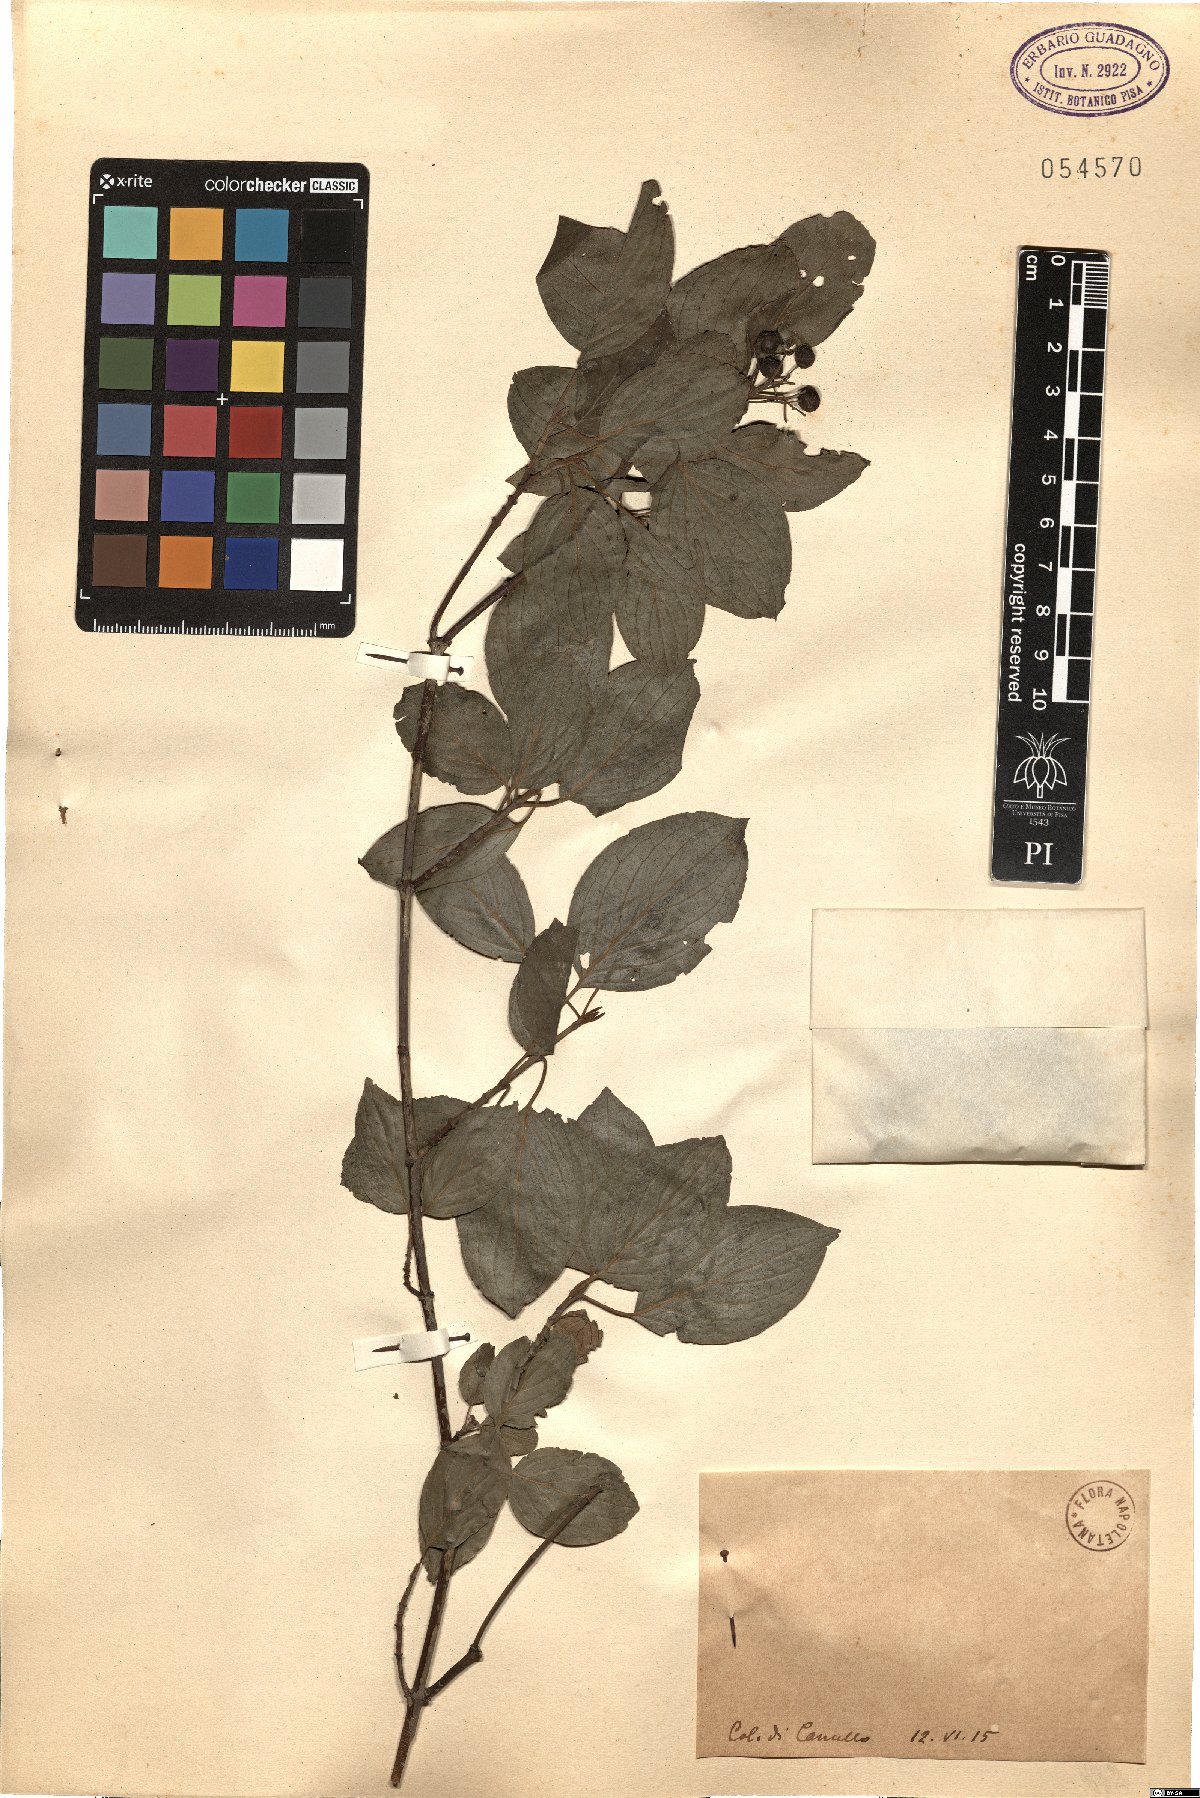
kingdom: Plantae
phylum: Tracheophyta
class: Magnoliopsida
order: Cornales
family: Cornaceae
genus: Cornus
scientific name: Cornus
